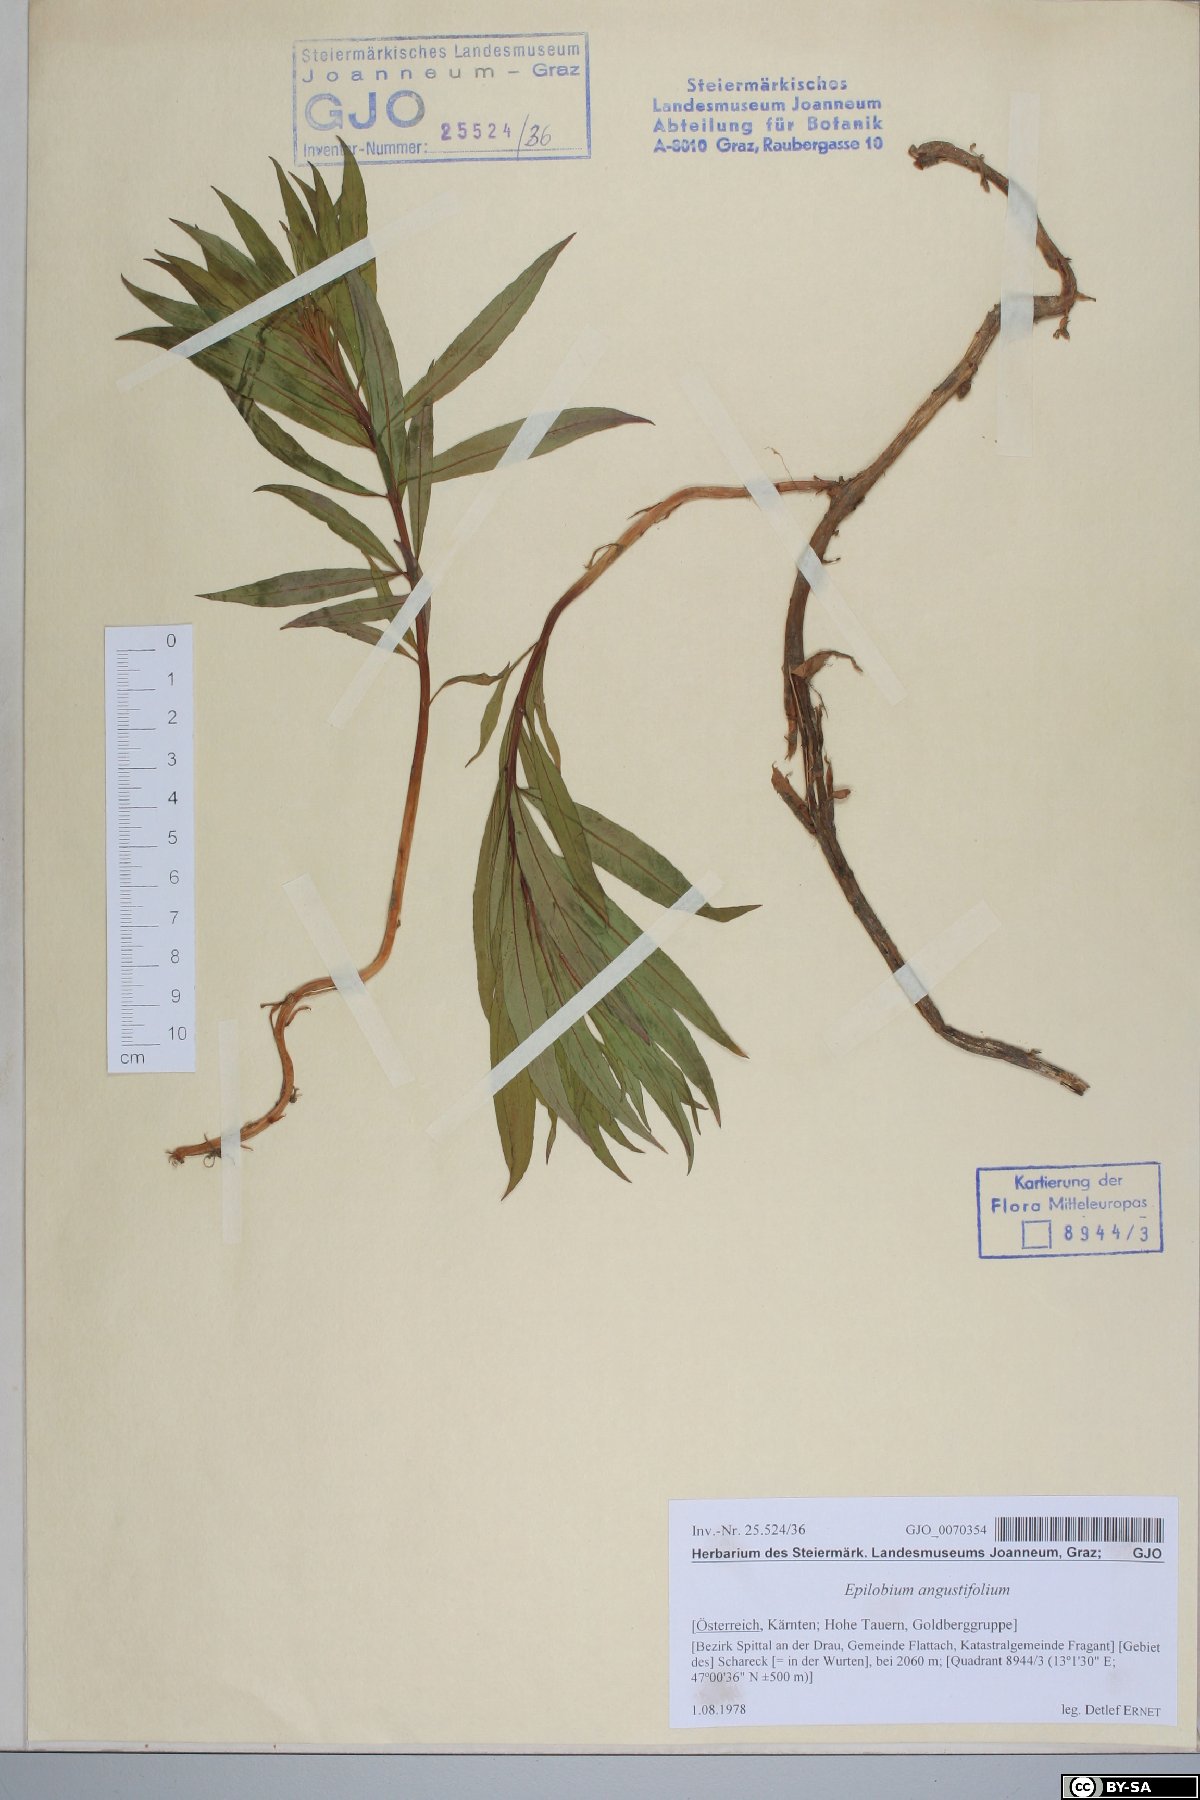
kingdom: Plantae
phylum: Tracheophyta
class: Magnoliopsida
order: Myrtales
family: Onagraceae
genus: Chamaenerion
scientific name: Chamaenerion angustifolium
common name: Fireweed
